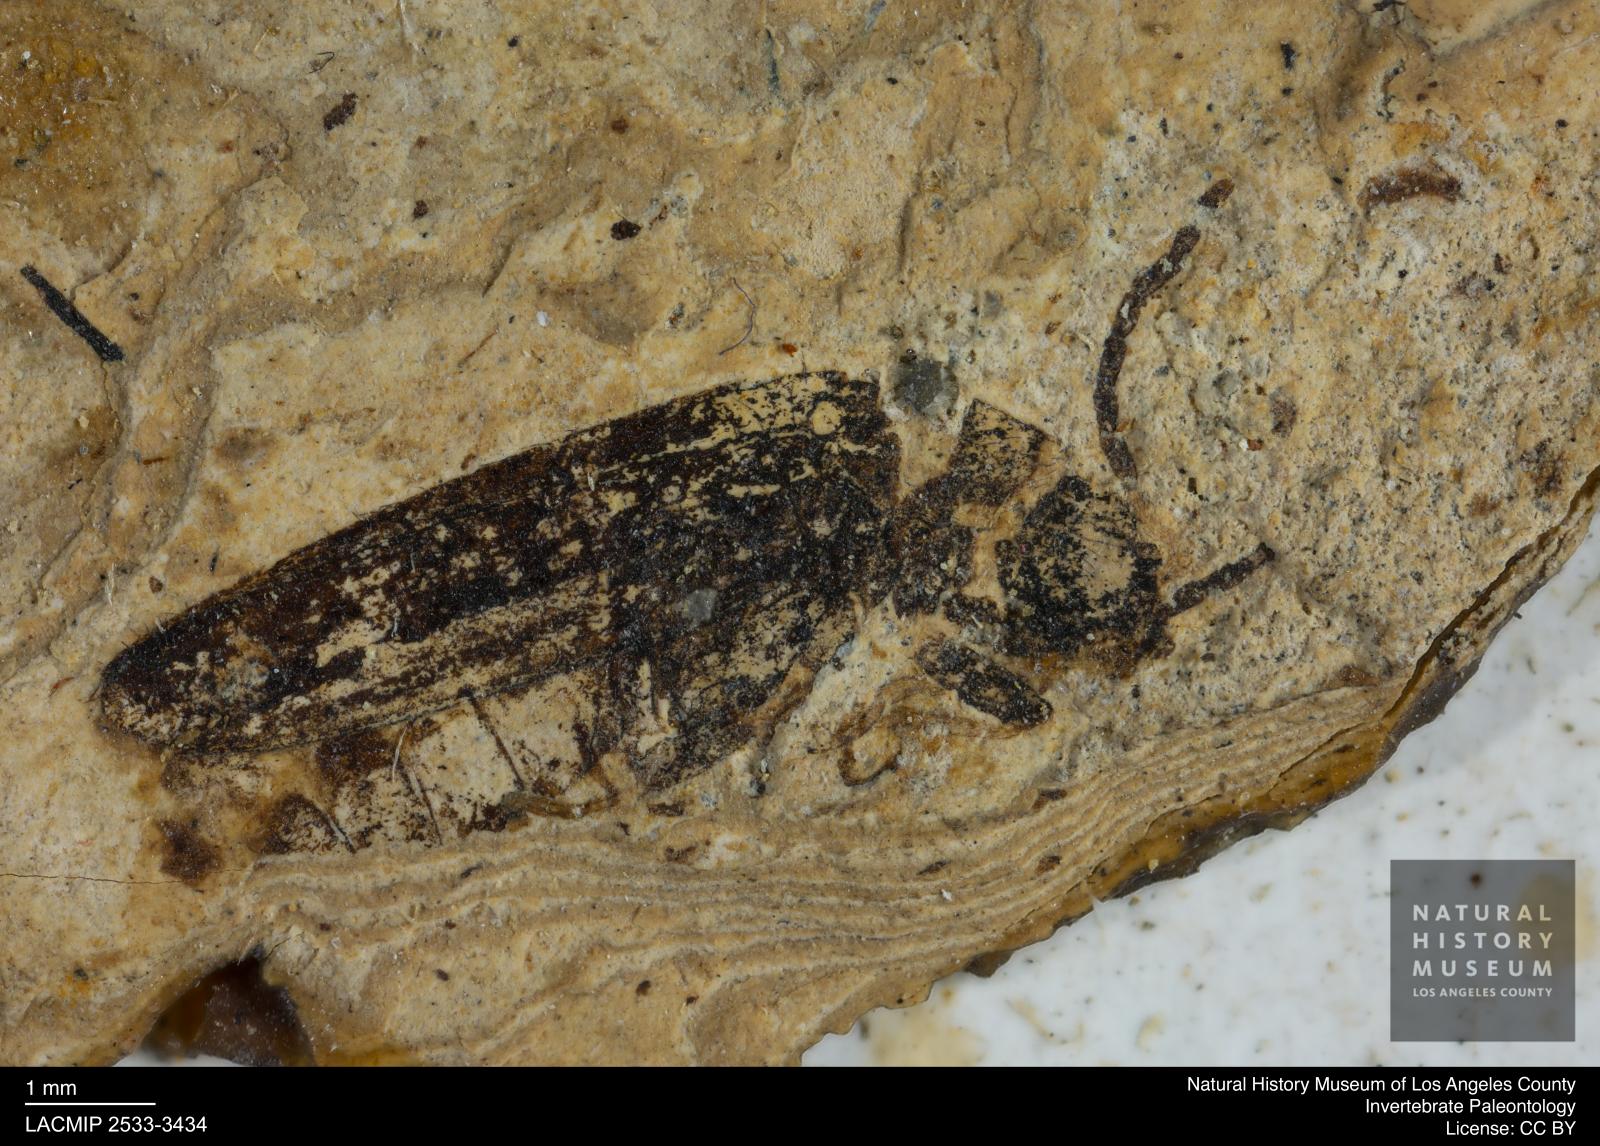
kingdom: Animalia
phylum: Arthropoda
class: Insecta
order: Coleoptera
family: Cantharidae
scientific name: Cantharidae
